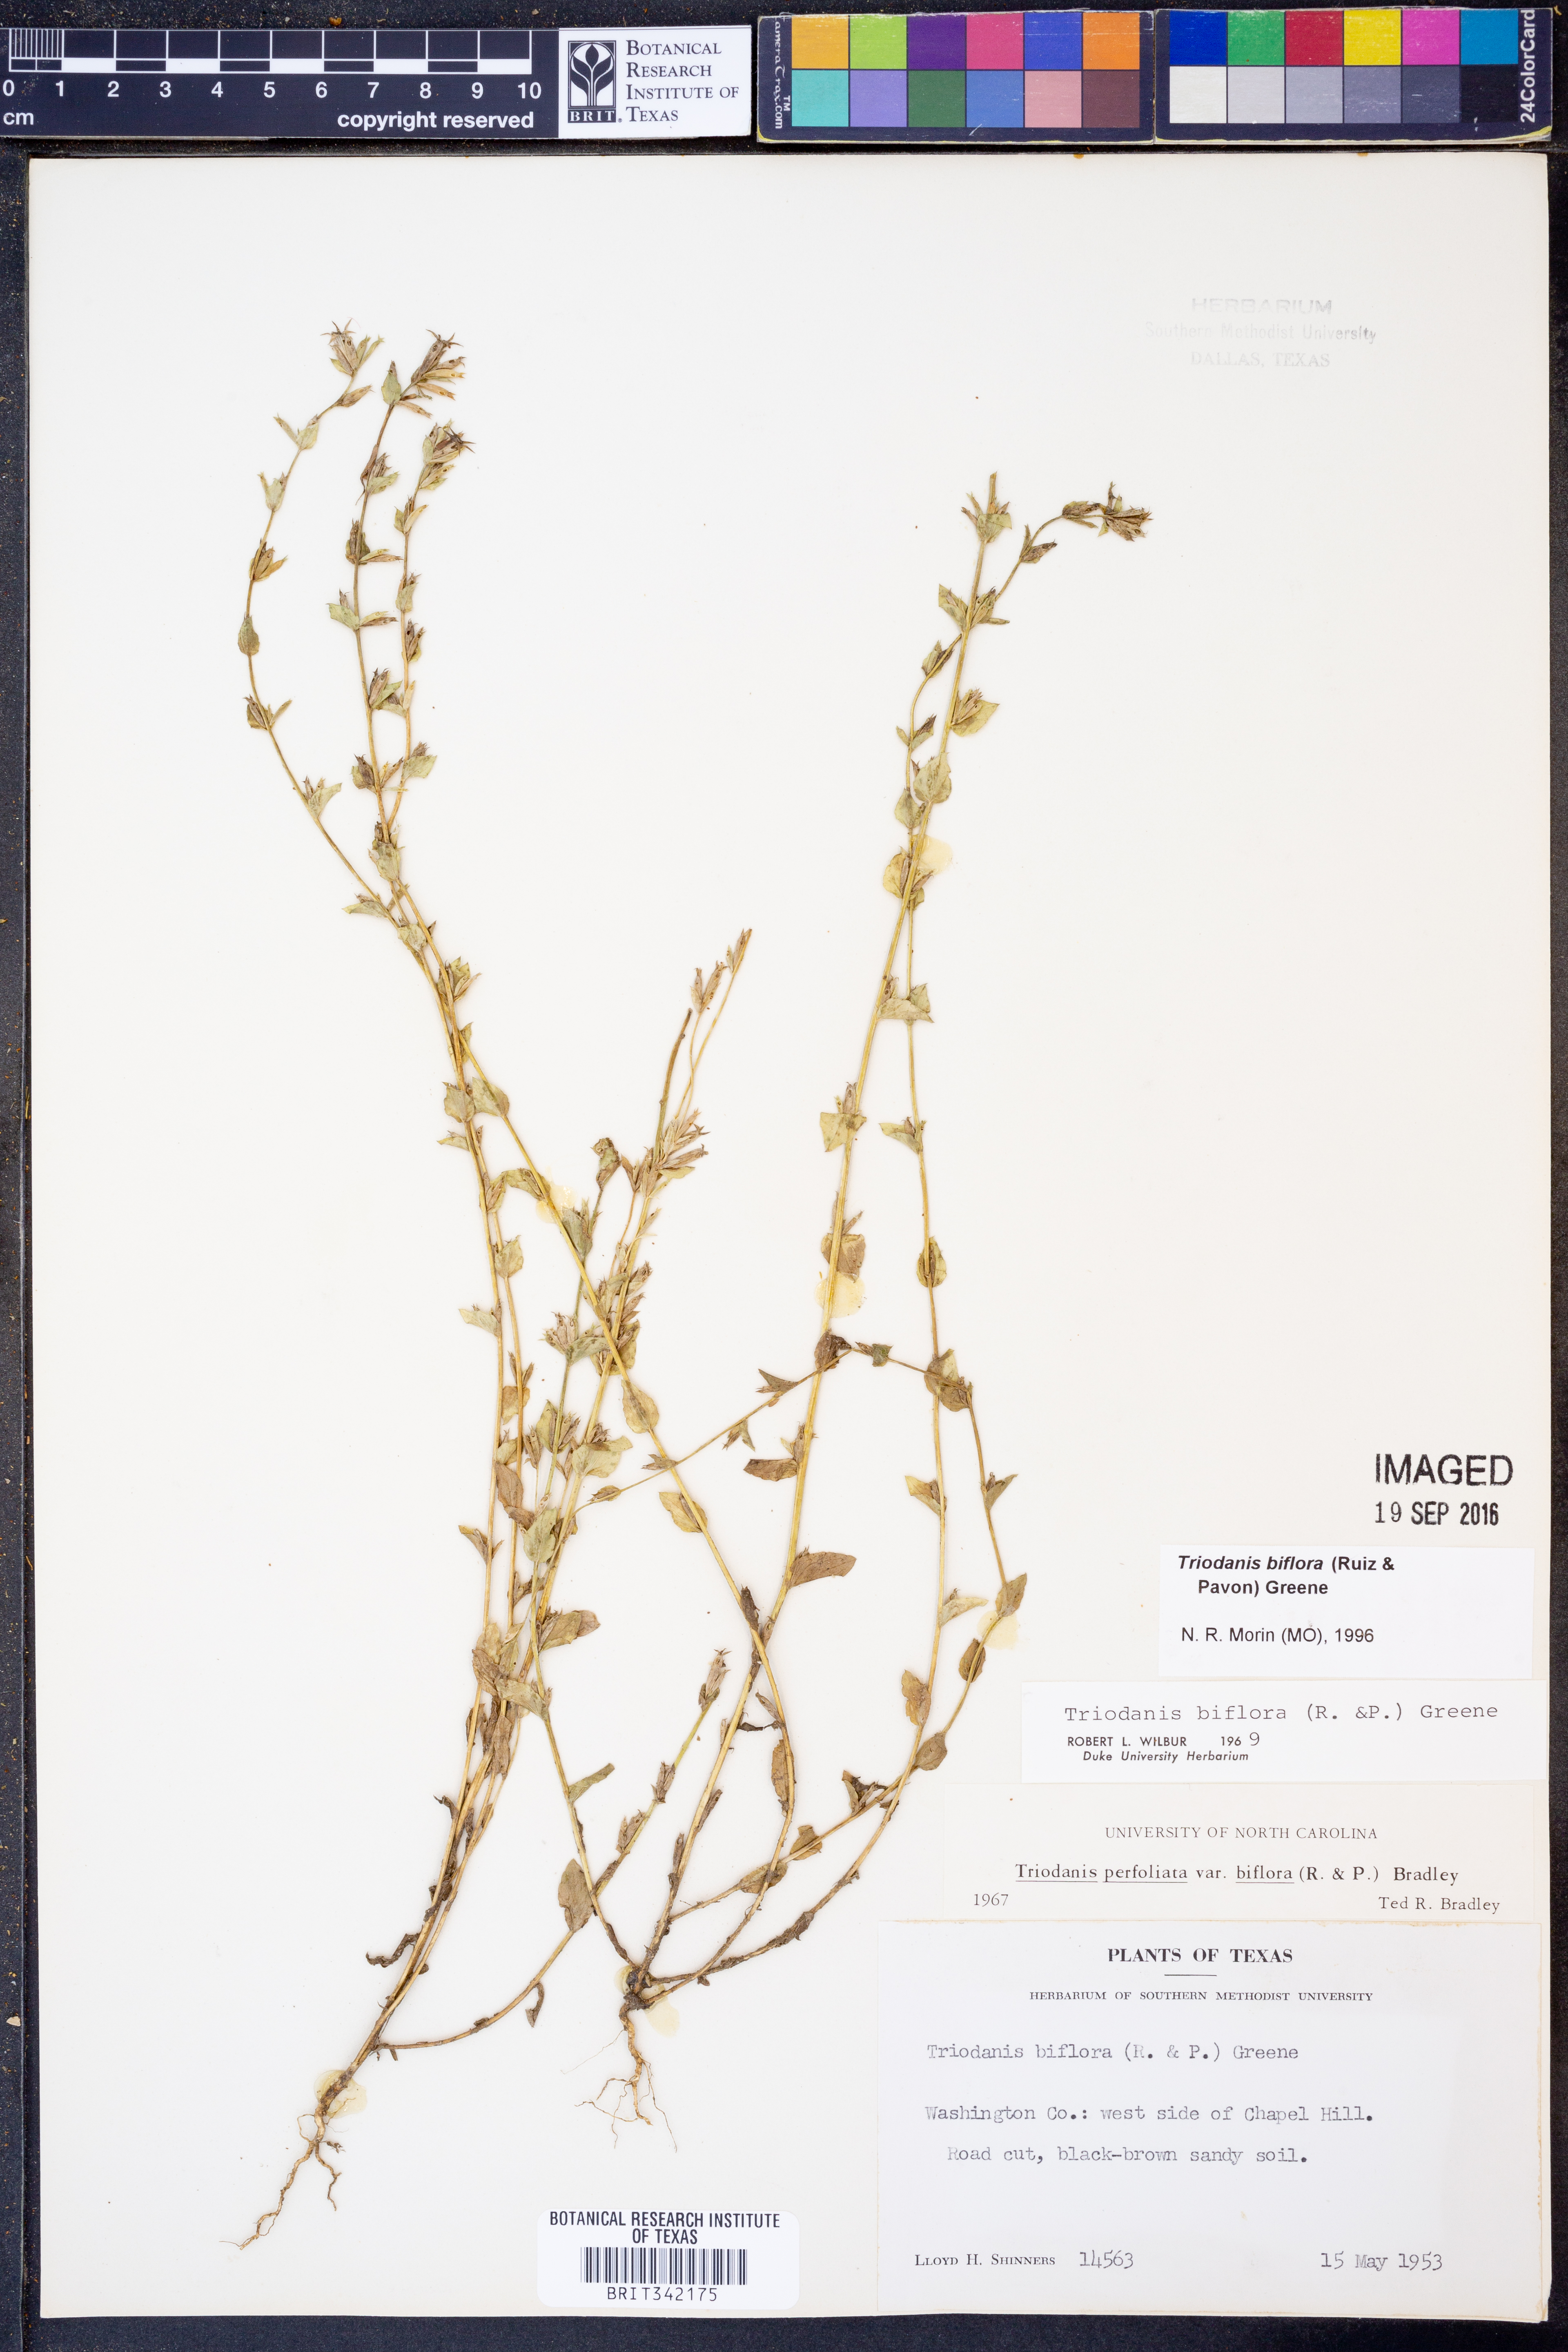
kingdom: Plantae
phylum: Tracheophyta
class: Magnoliopsida
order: Asterales
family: Campanulaceae
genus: Triodanis
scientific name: Triodanis perfoliata
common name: Clasping venus' looking-glass
